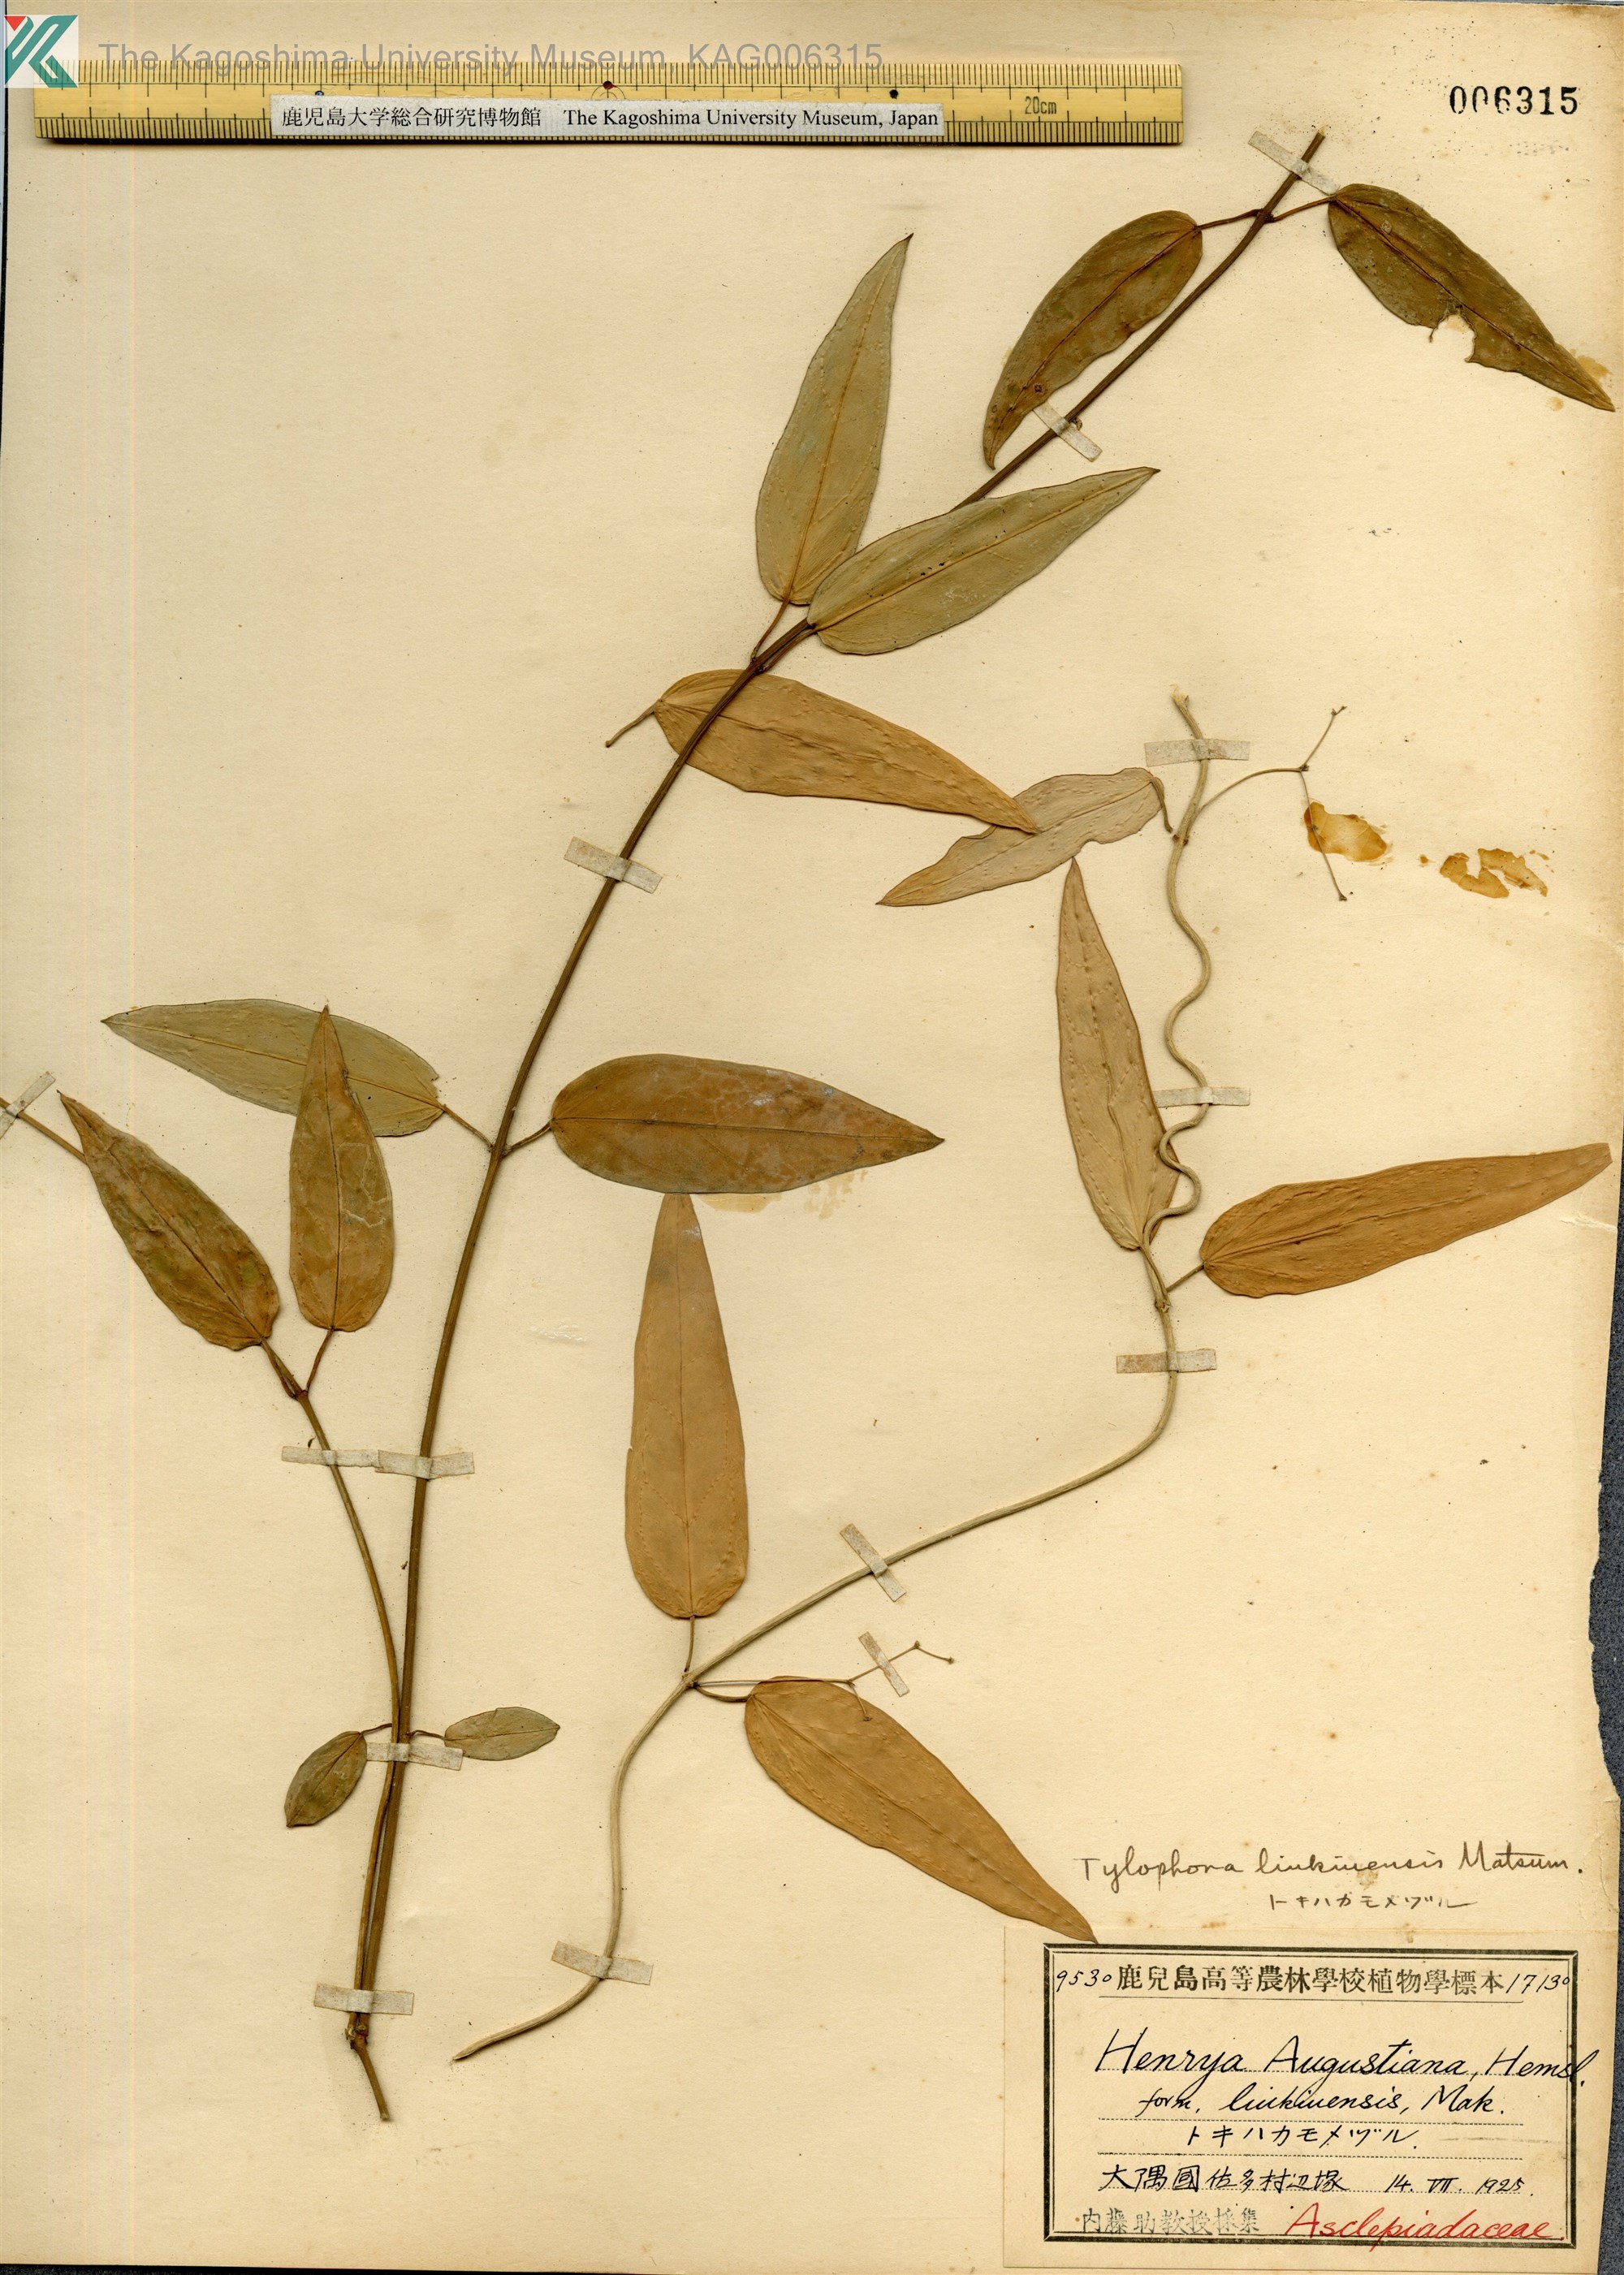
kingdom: Plantae
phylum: Tracheophyta
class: Magnoliopsida
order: Gentianales
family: Apocynaceae
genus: Vincetoxicum
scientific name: Vincetoxicum sieboldii
